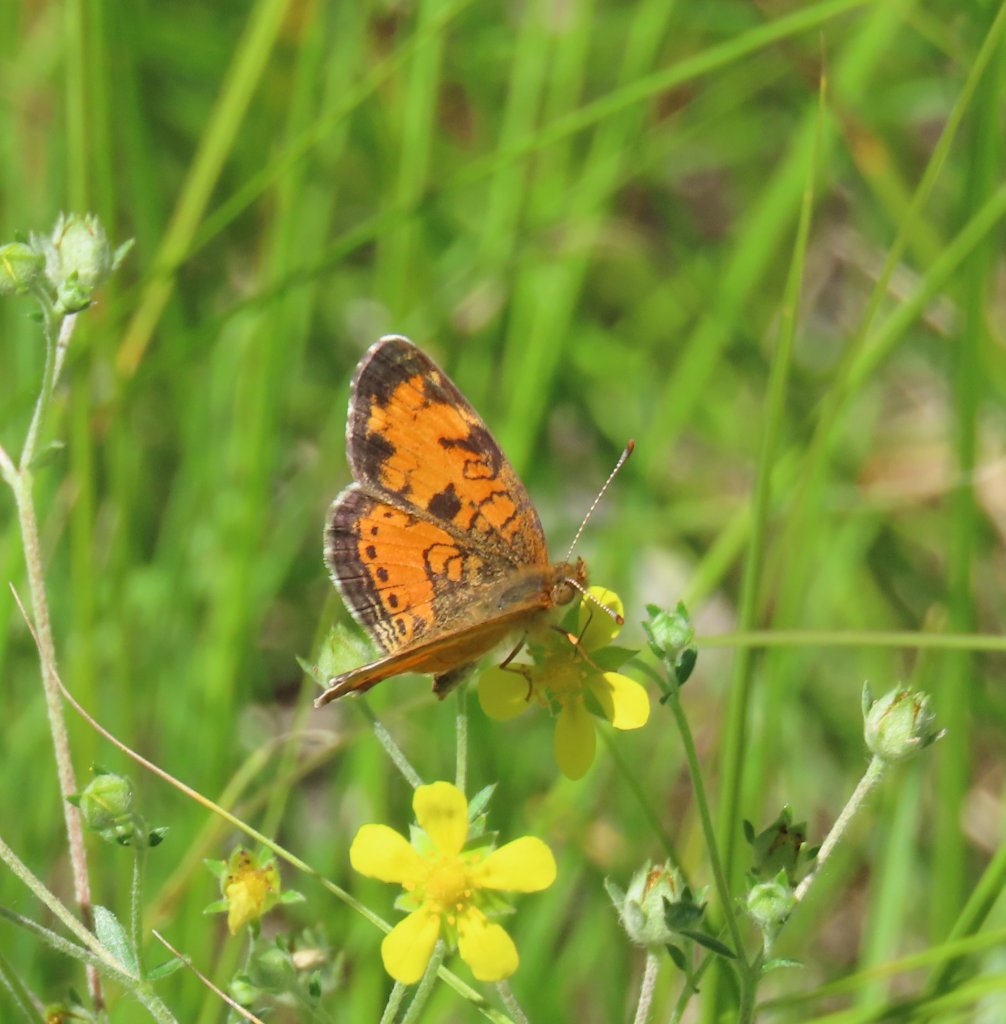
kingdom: Animalia
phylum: Arthropoda
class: Insecta
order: Lepidoptera
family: Nymphalidae
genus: Phyciodes
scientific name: Phyciodes tharos
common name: Northern Crescent
